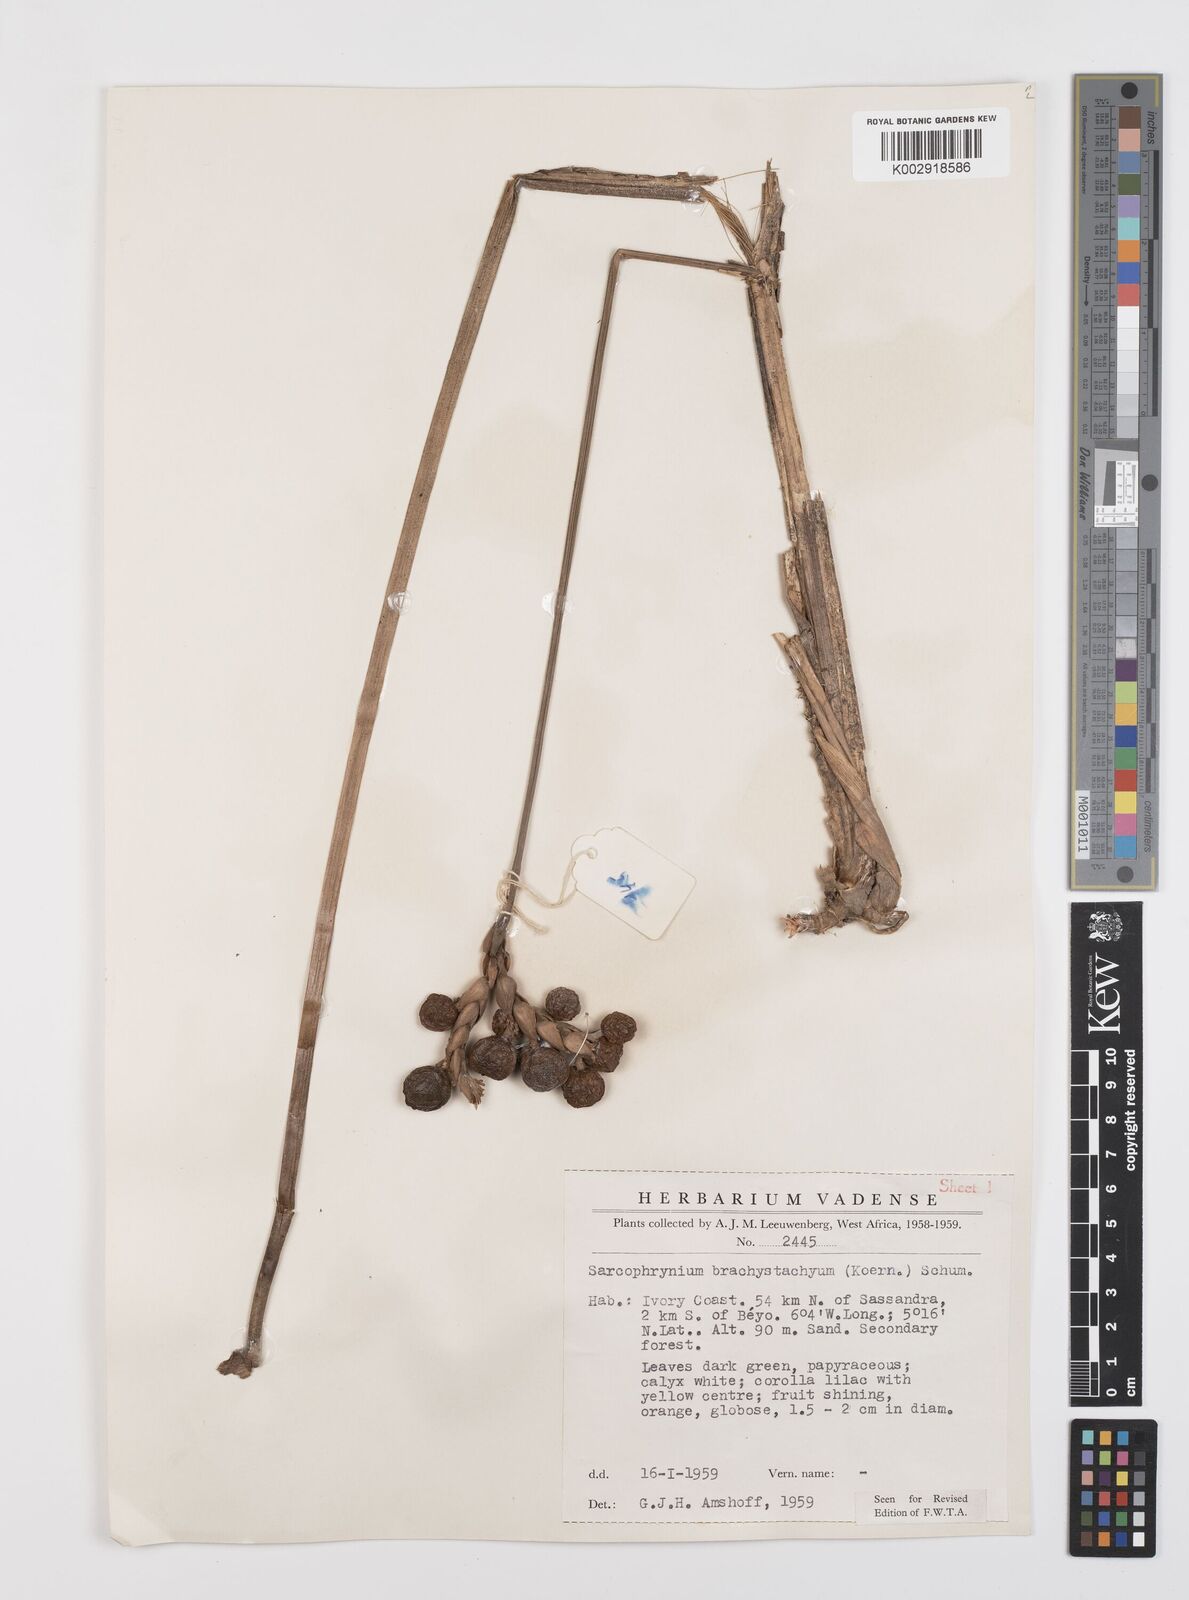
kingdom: Plantae
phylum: Tracheophyta
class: Liliopsida
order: Zingiberales
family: Marantaceae
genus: Sarcophrynium
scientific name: Sarcophrynium brachystachyum
